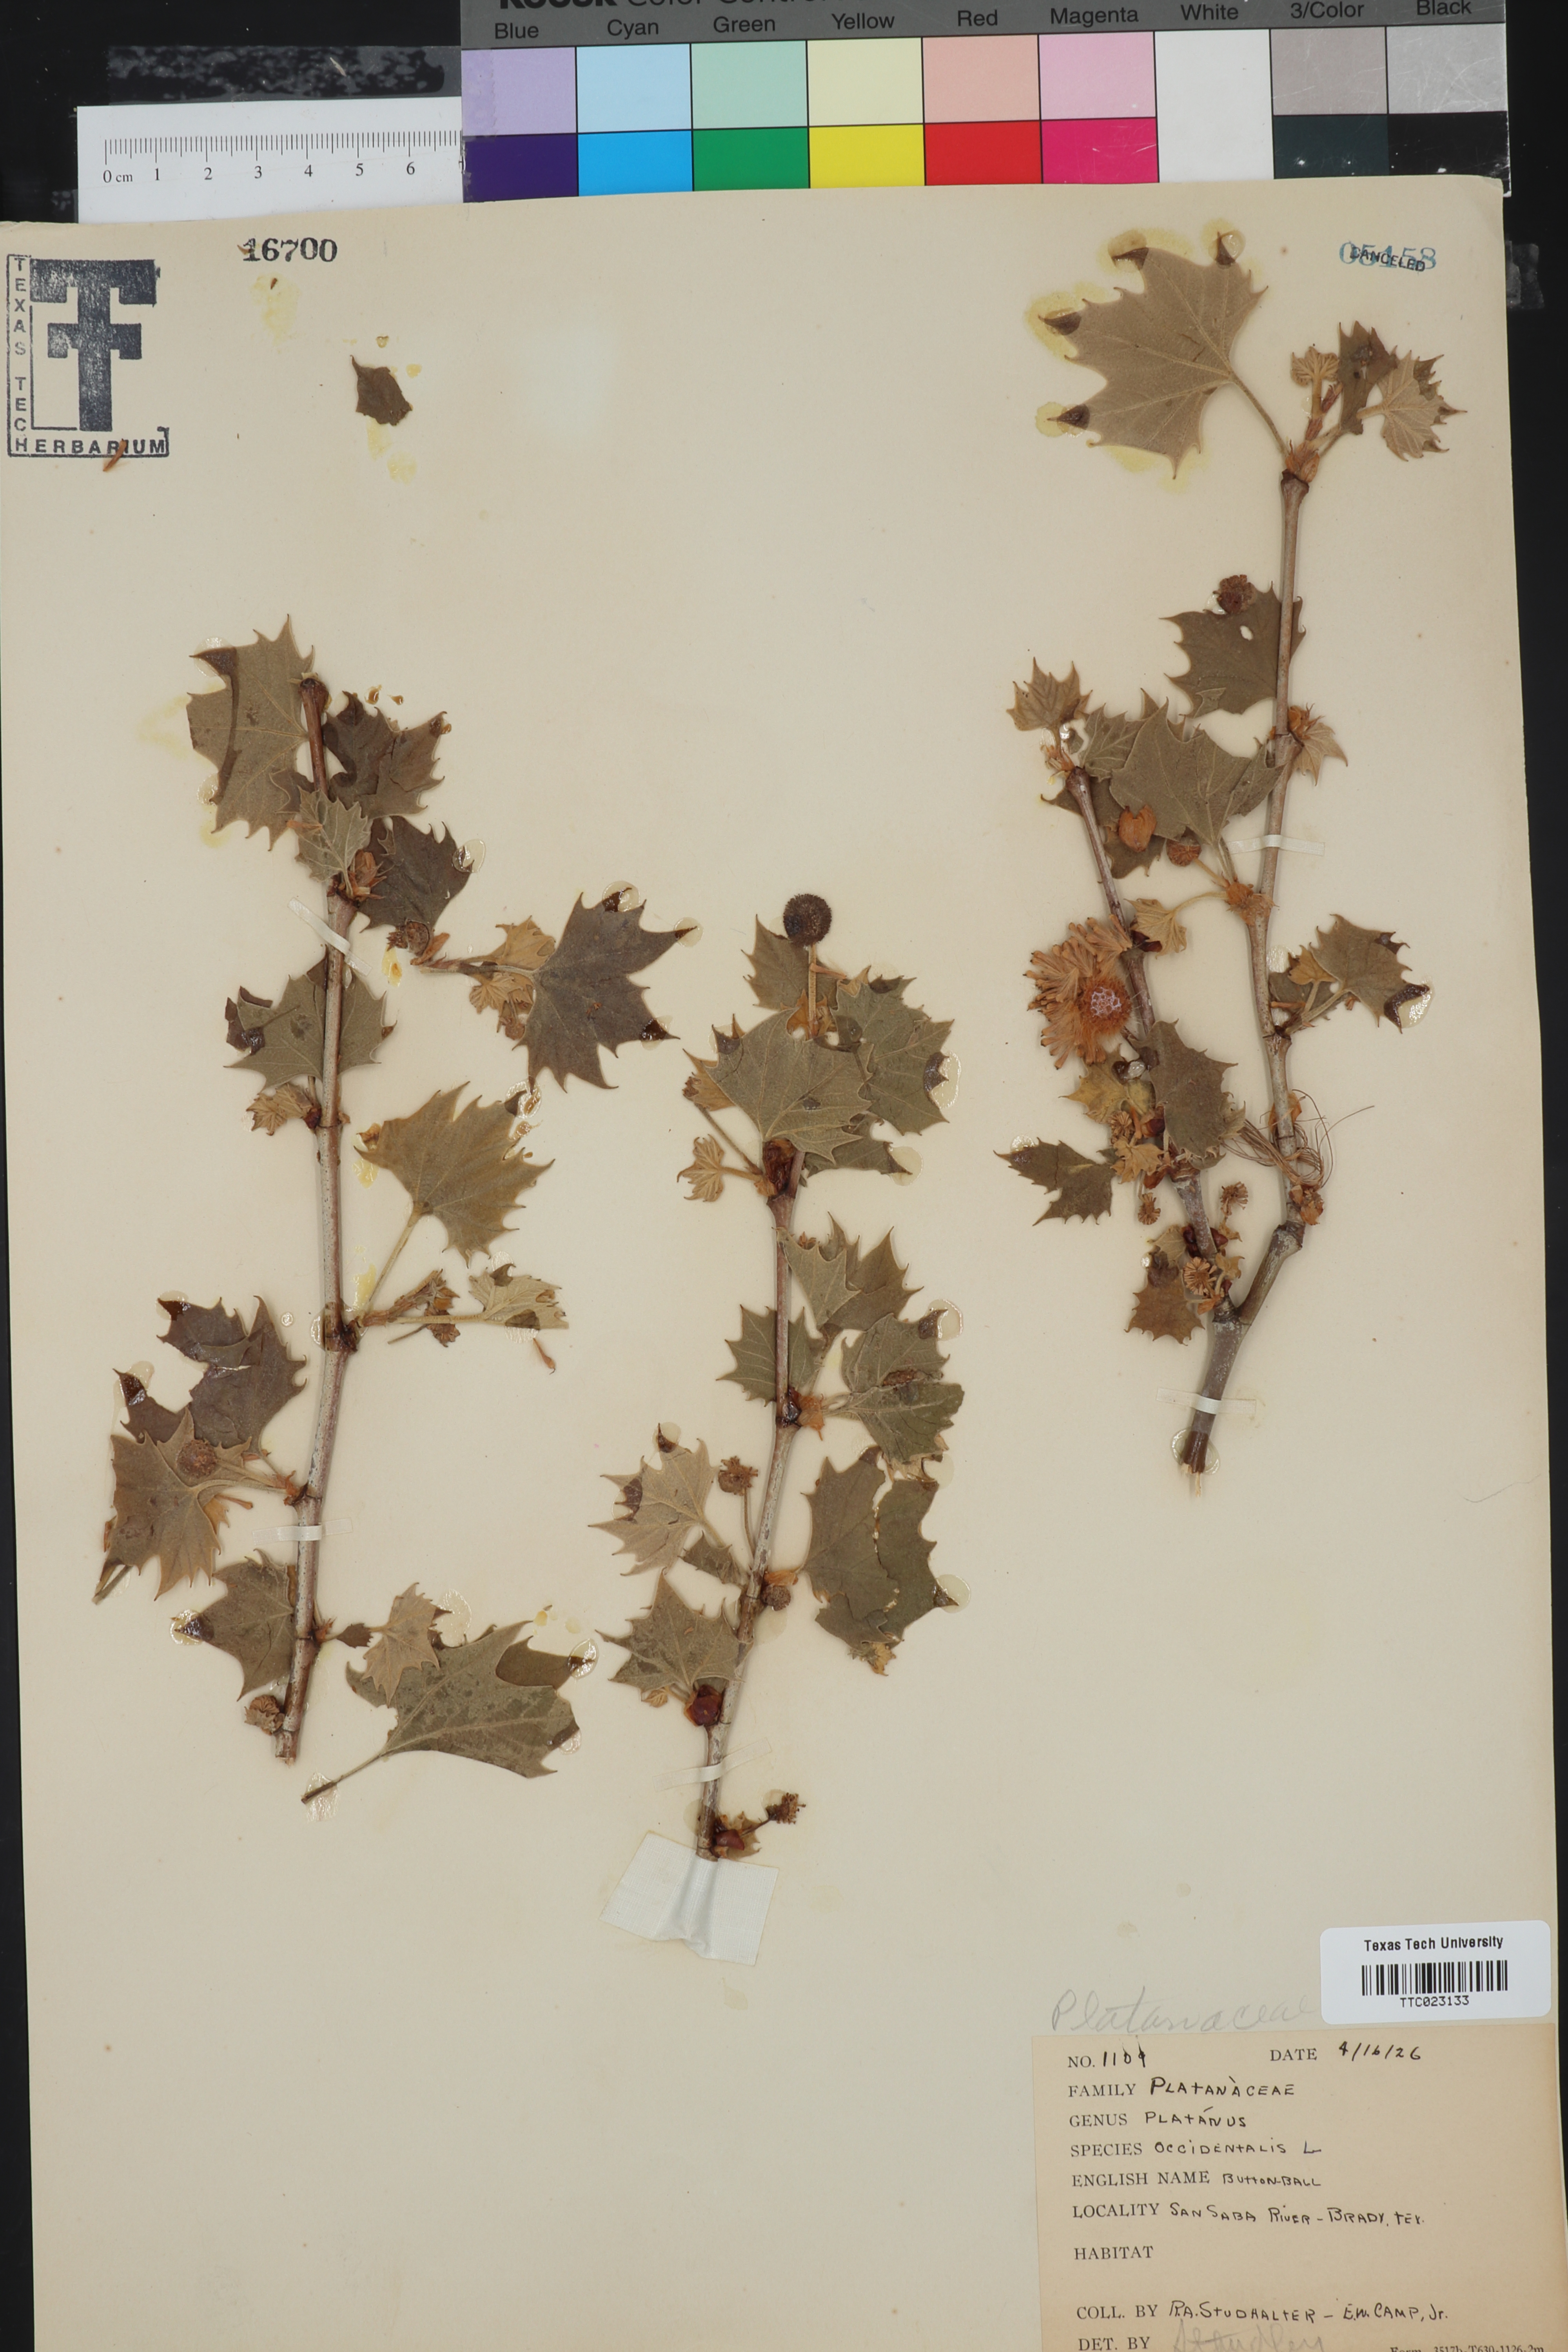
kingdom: Plantae
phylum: Tracheophyta
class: Magnoliopsida
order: Proteales
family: Platanaceae
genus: Platanus
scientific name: Platanus occidentalis
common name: American sycamore
